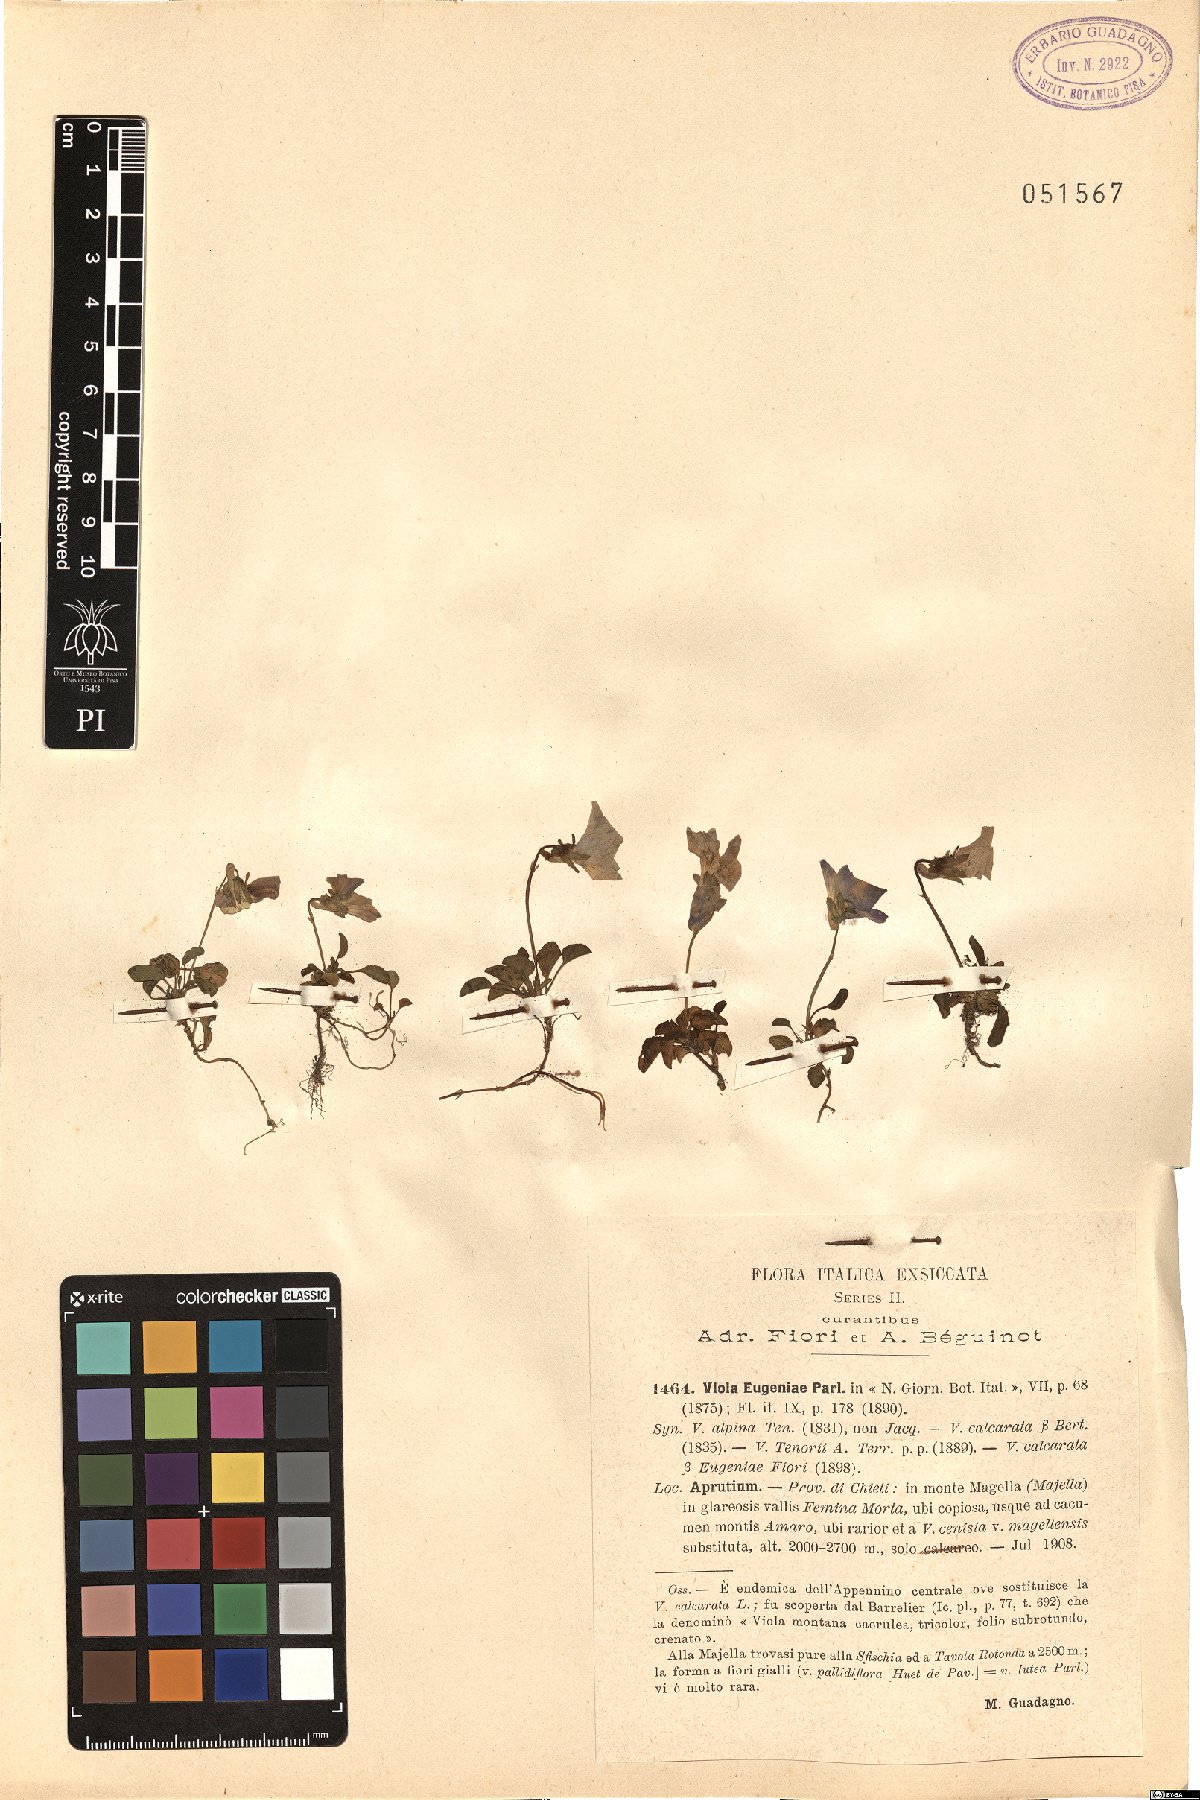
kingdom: Plantae
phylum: Tracheophyta
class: Magnoliopsida
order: Malpighiales
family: Violaceae
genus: Viola
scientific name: Viola eugeniae
